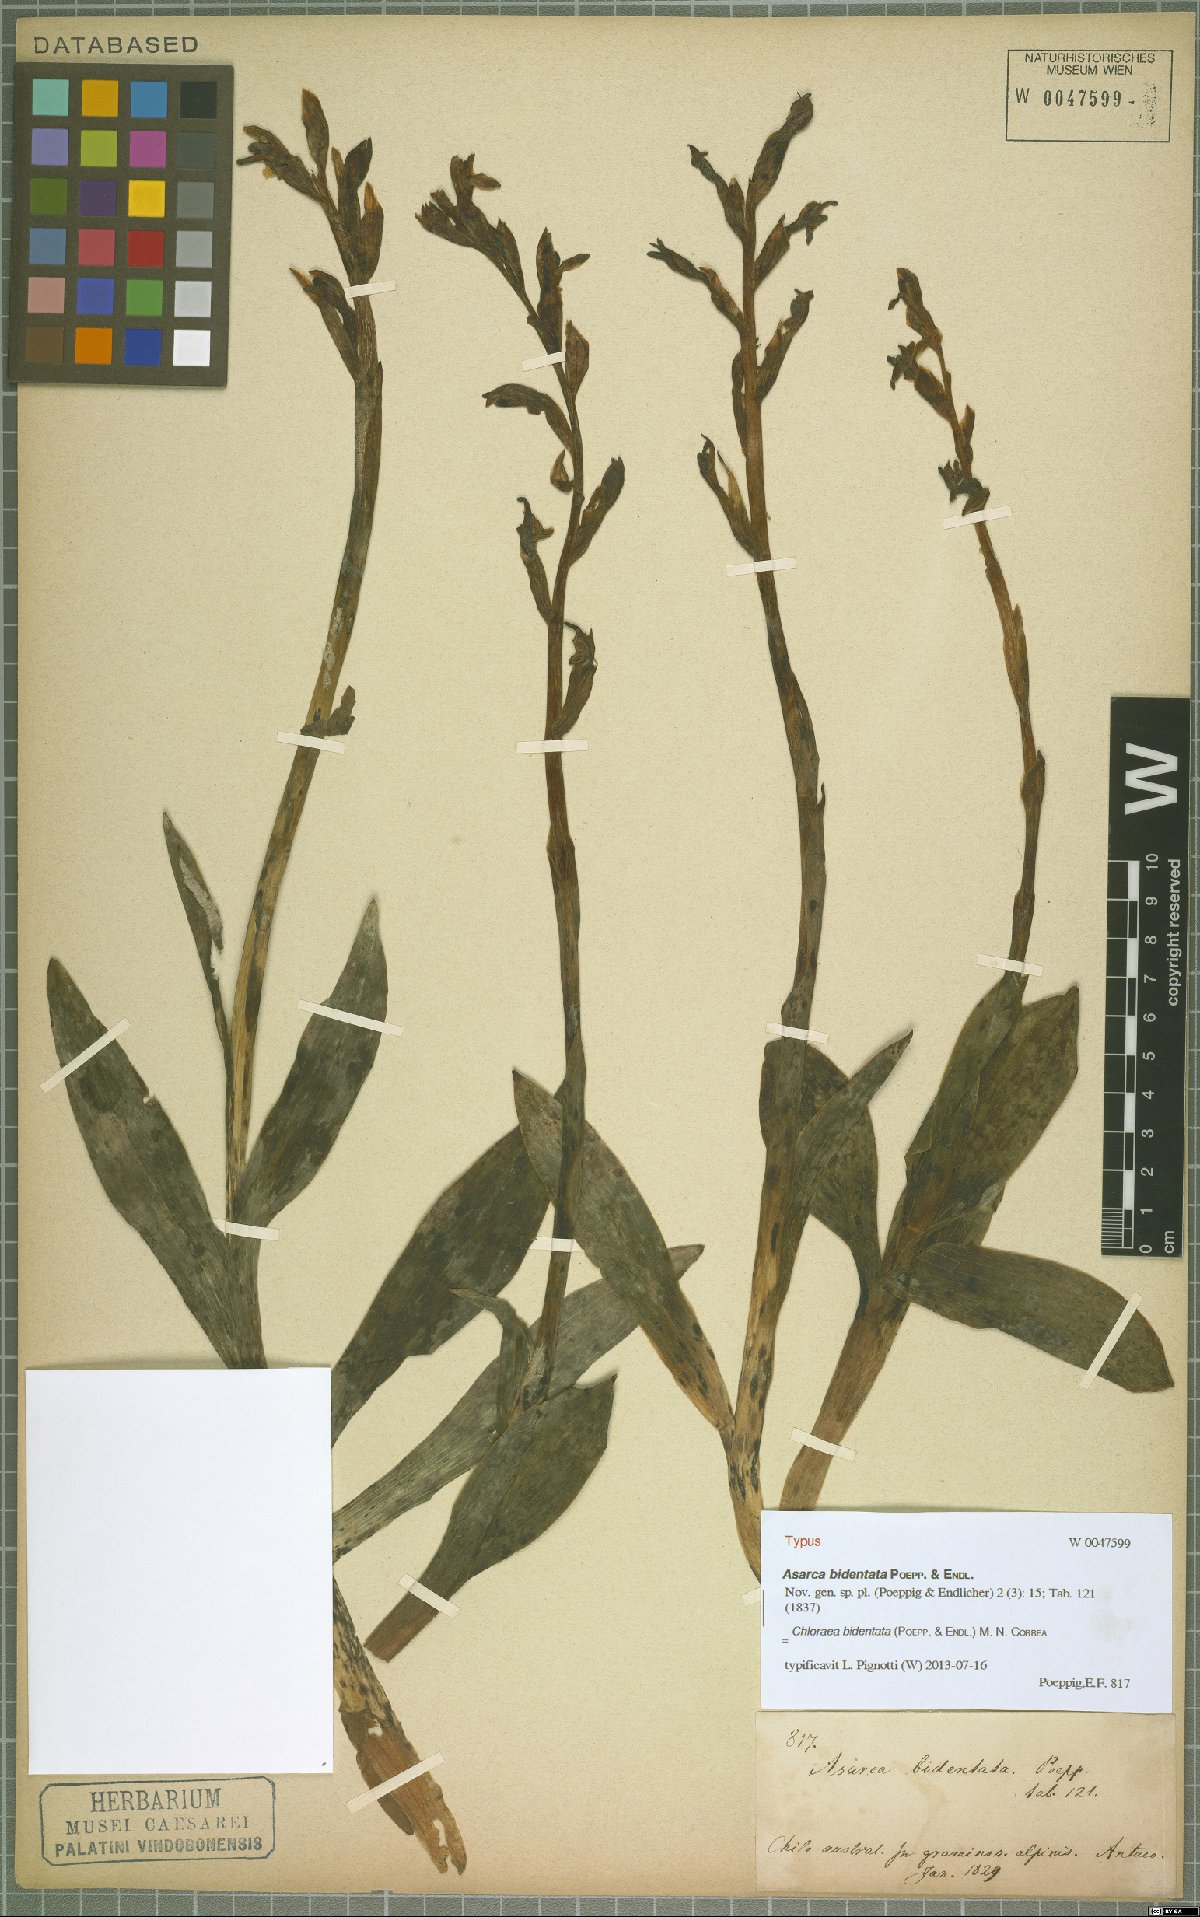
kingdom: Plantae
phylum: Tracheophyta
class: Liliopsida
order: Asparagales
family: Orchidaceae
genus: Chloraea
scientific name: Chloraea bidentata
